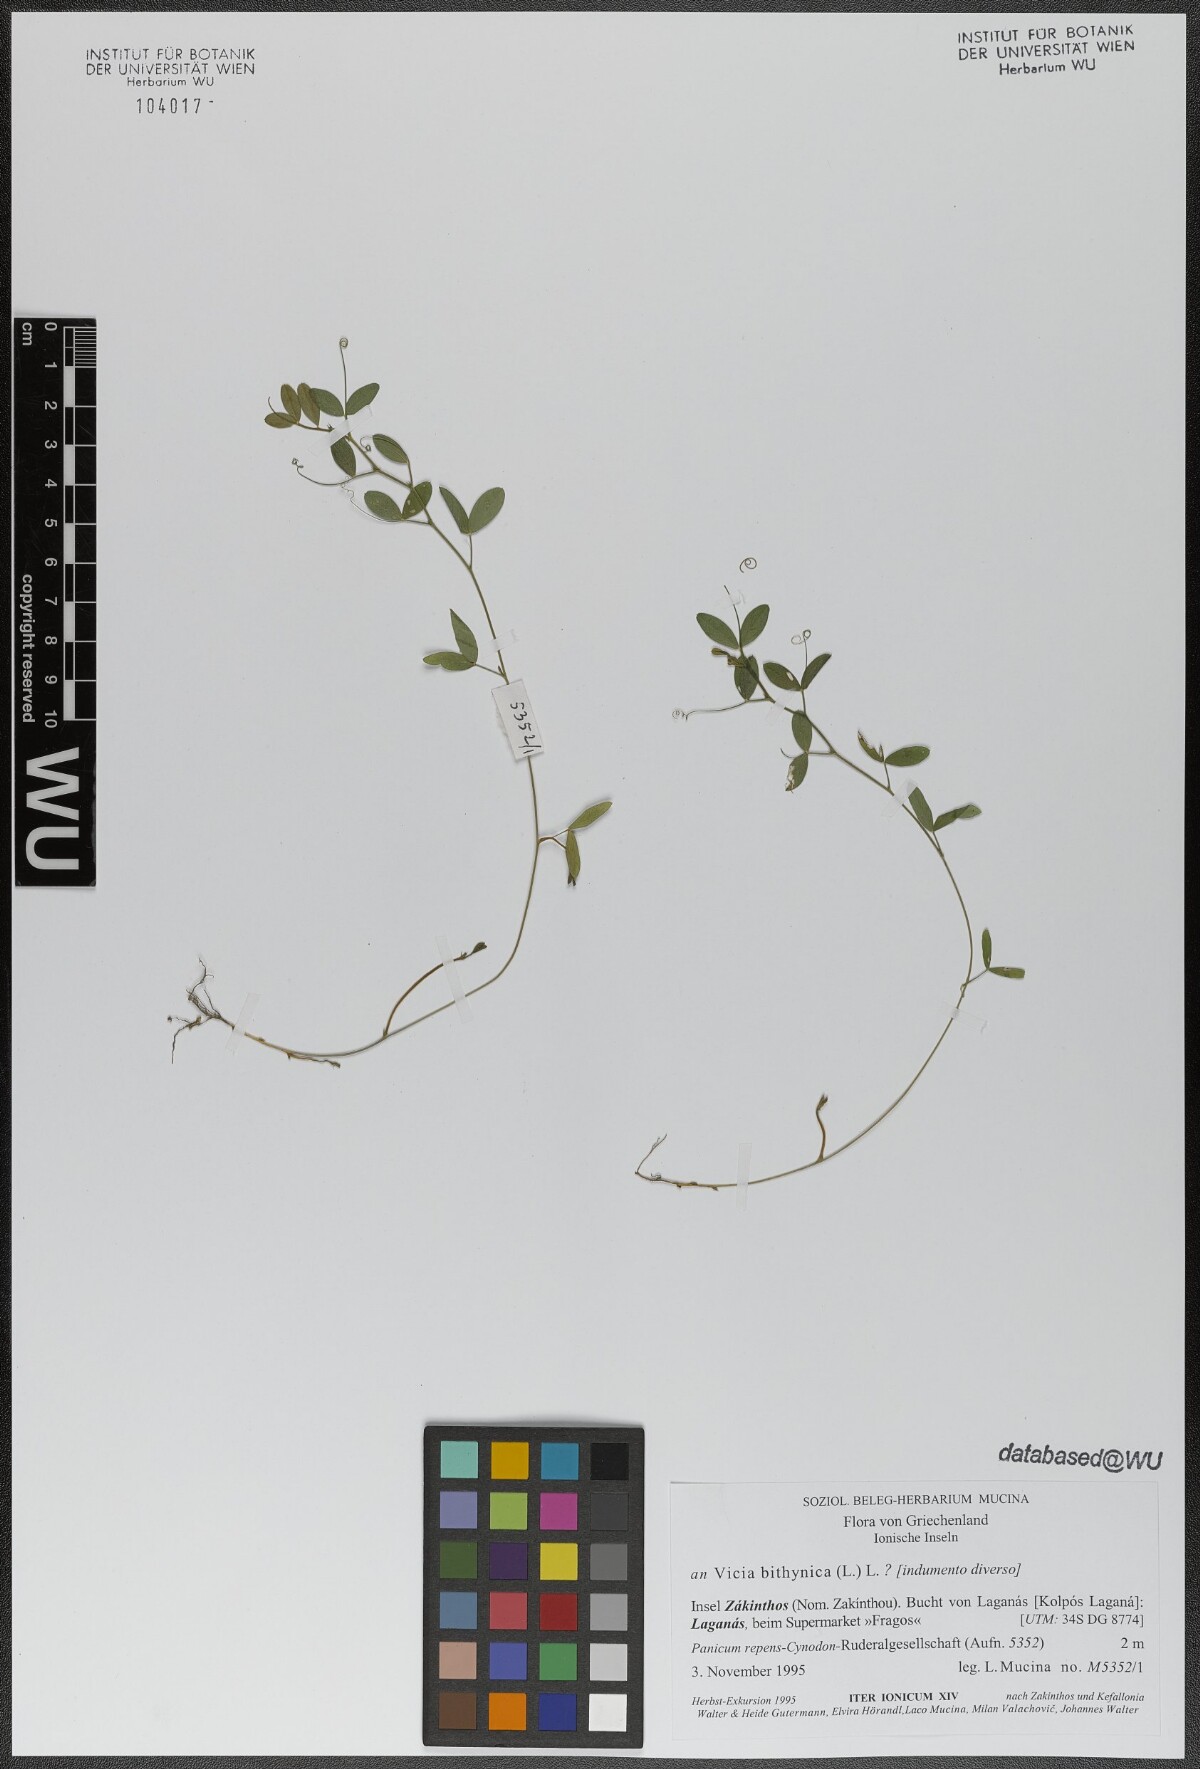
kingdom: Plantae
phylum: Tracheophyta
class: Magnoliopsida
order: Fabales
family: Fabaceae
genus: Vicia
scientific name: Vicia bithynica
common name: Bithynian vetch
